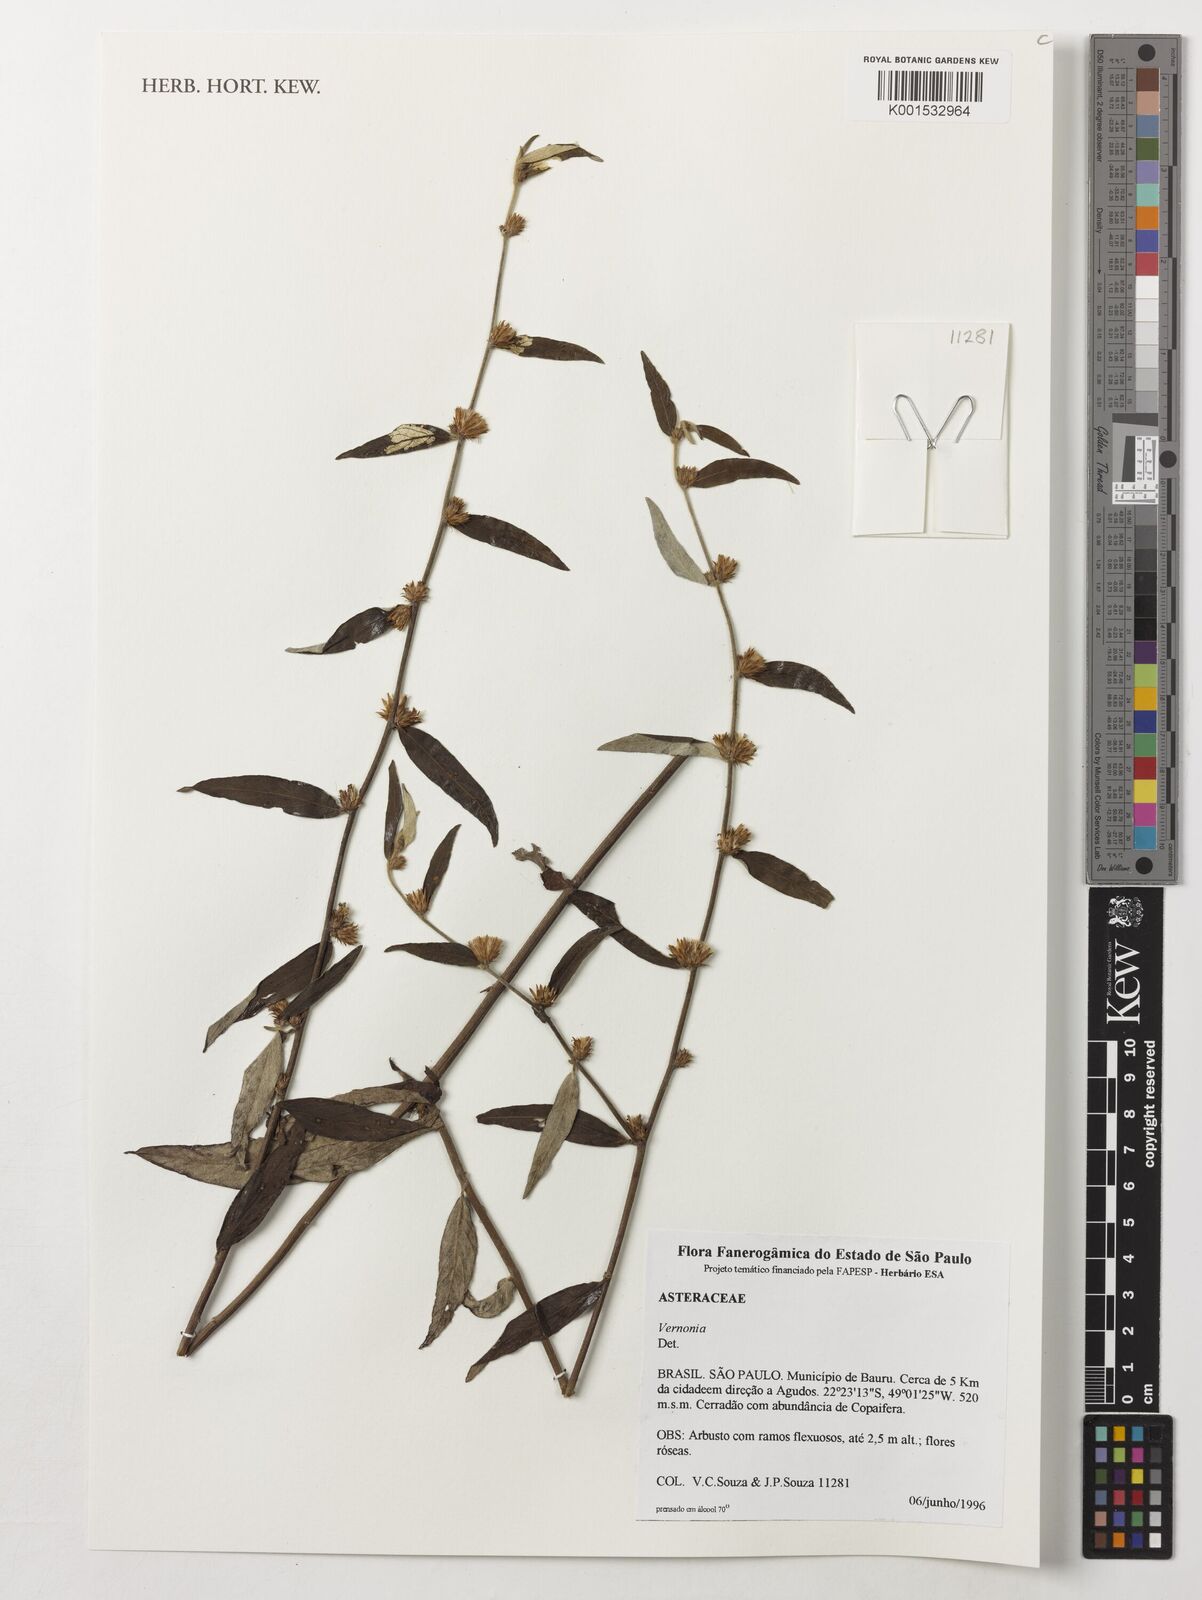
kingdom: Plantae
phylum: Tracheophyta
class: Magnoliopsida
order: Asterales
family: Asteraceae
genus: Vernonia
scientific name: Vernonia
